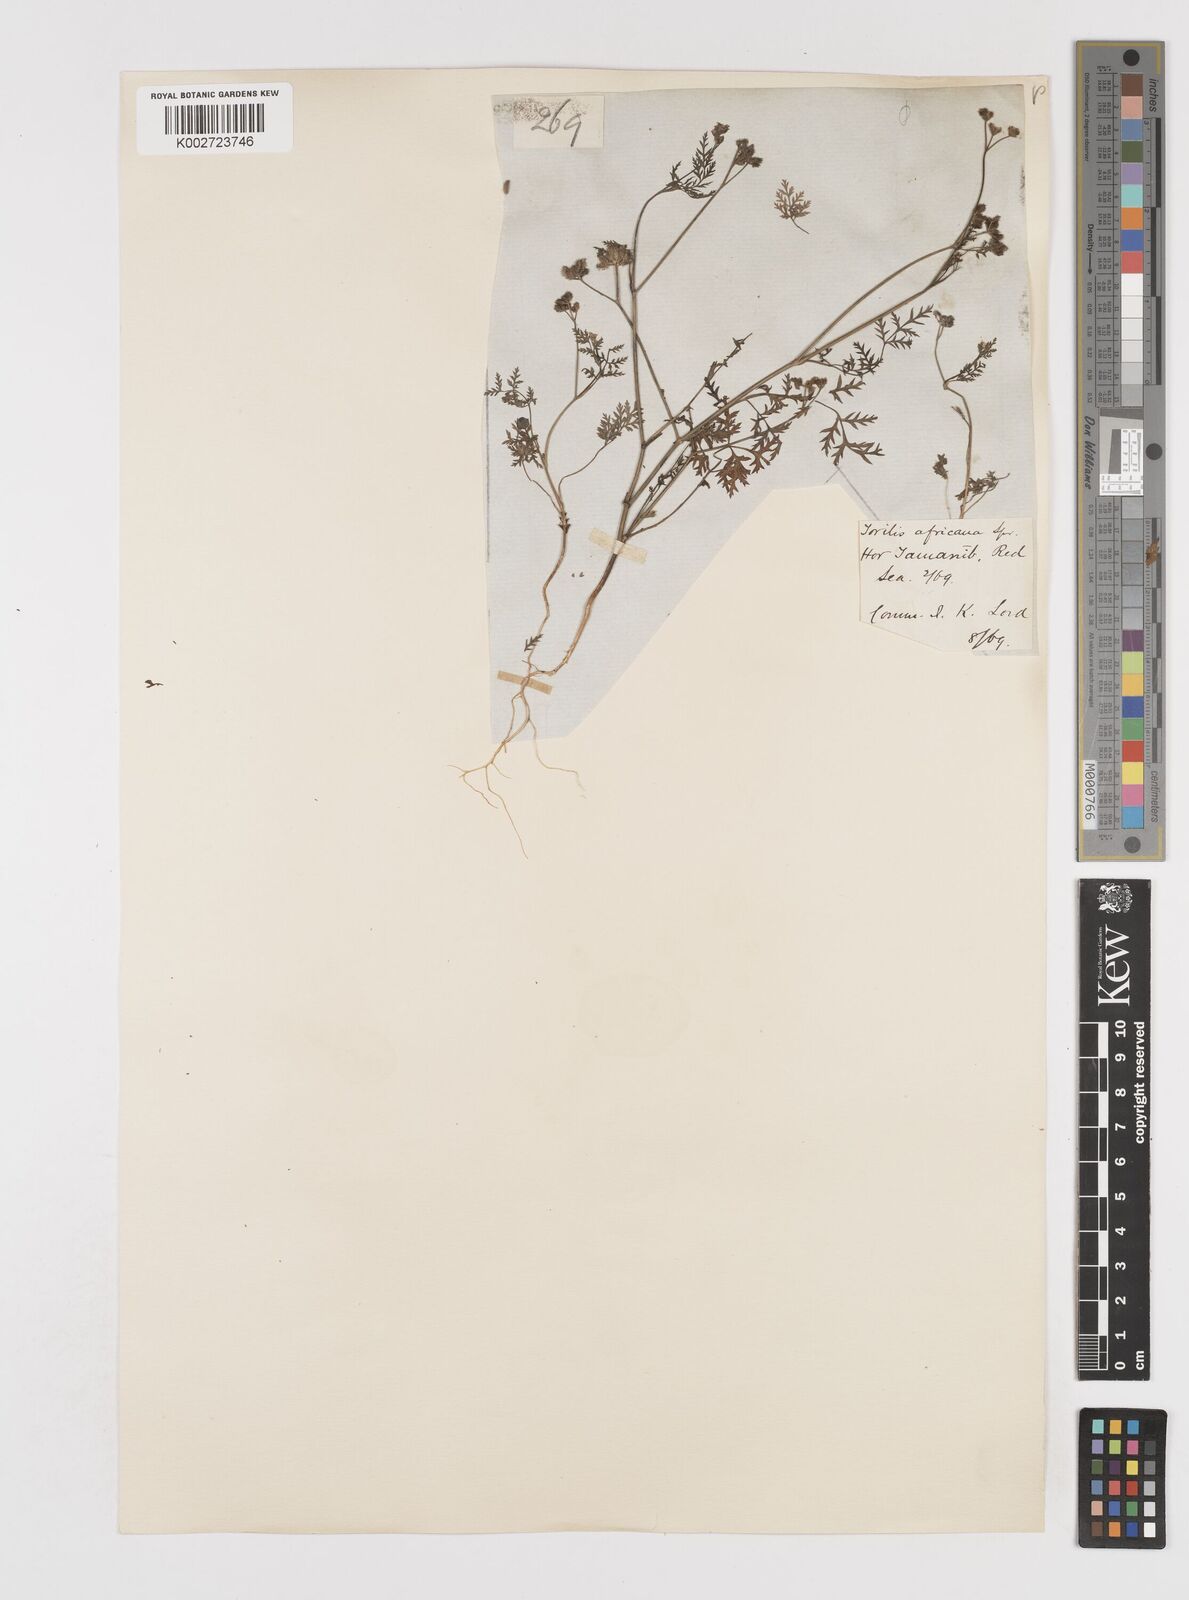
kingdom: Plantae
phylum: Tracheophyta
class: Magnoliopsida
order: Apiales
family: Apiaceae
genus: Torilis
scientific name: Torilis arvensis
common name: Spreading hedge-parsley
